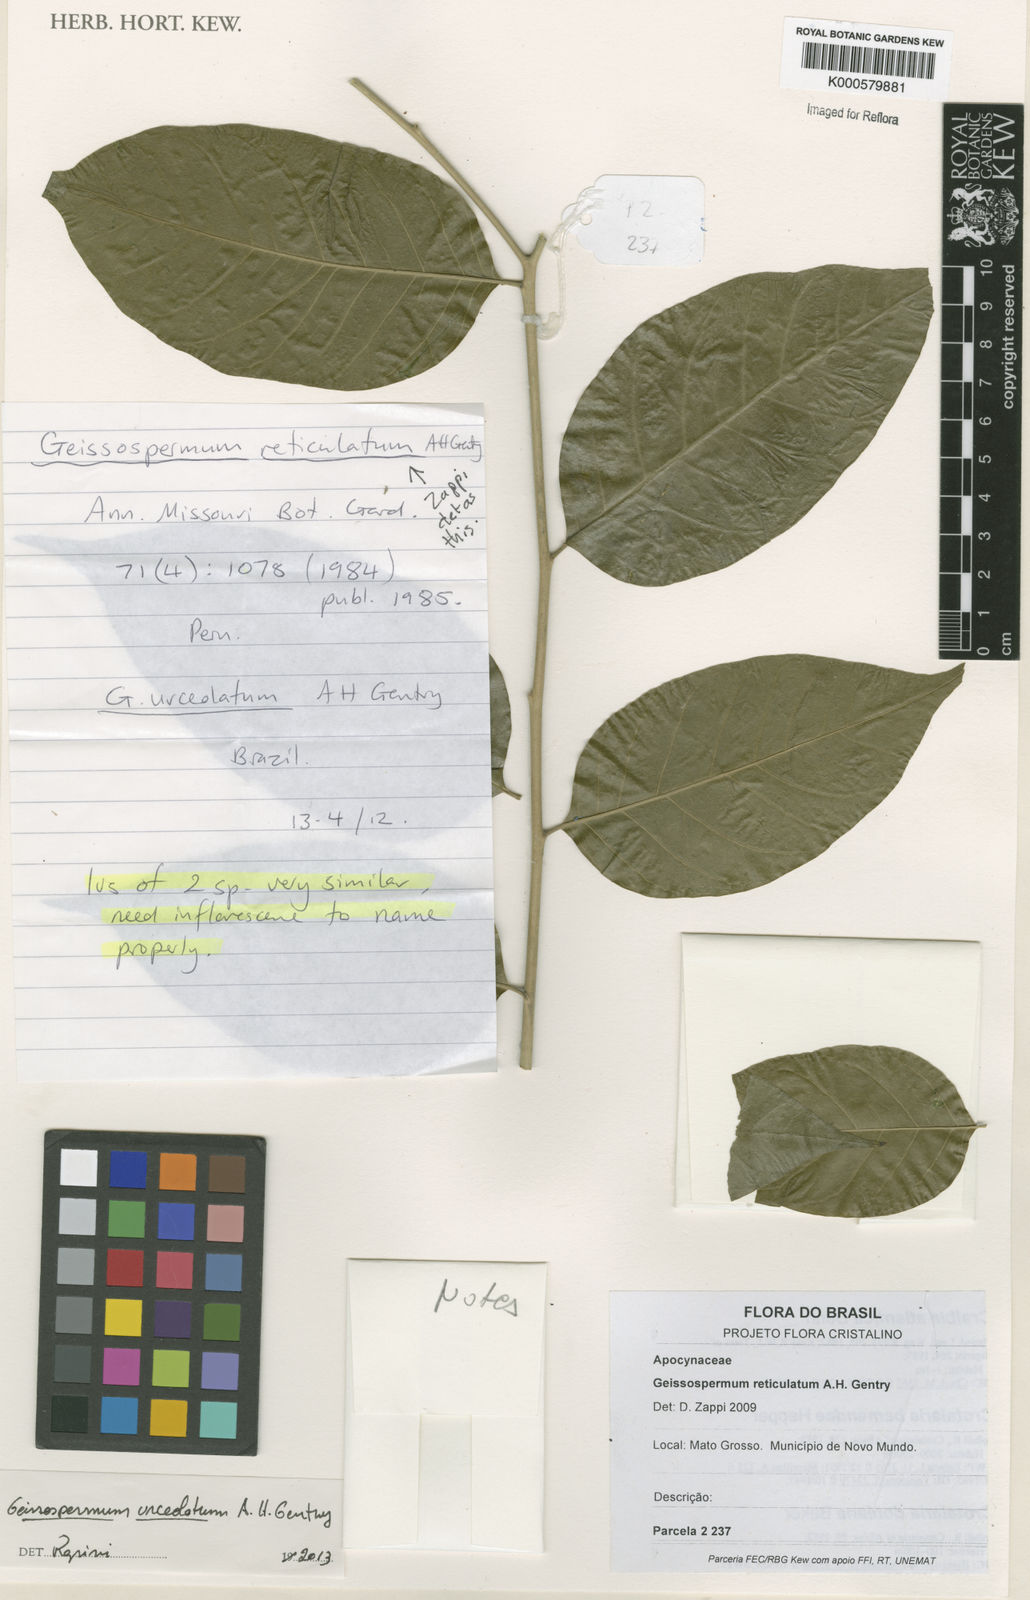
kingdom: Plantae
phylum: Tracheophyta
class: Magnoliopsida
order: Gentianales
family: Apocynaceae
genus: Geissospermum
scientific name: Geissospermum reticulatum
